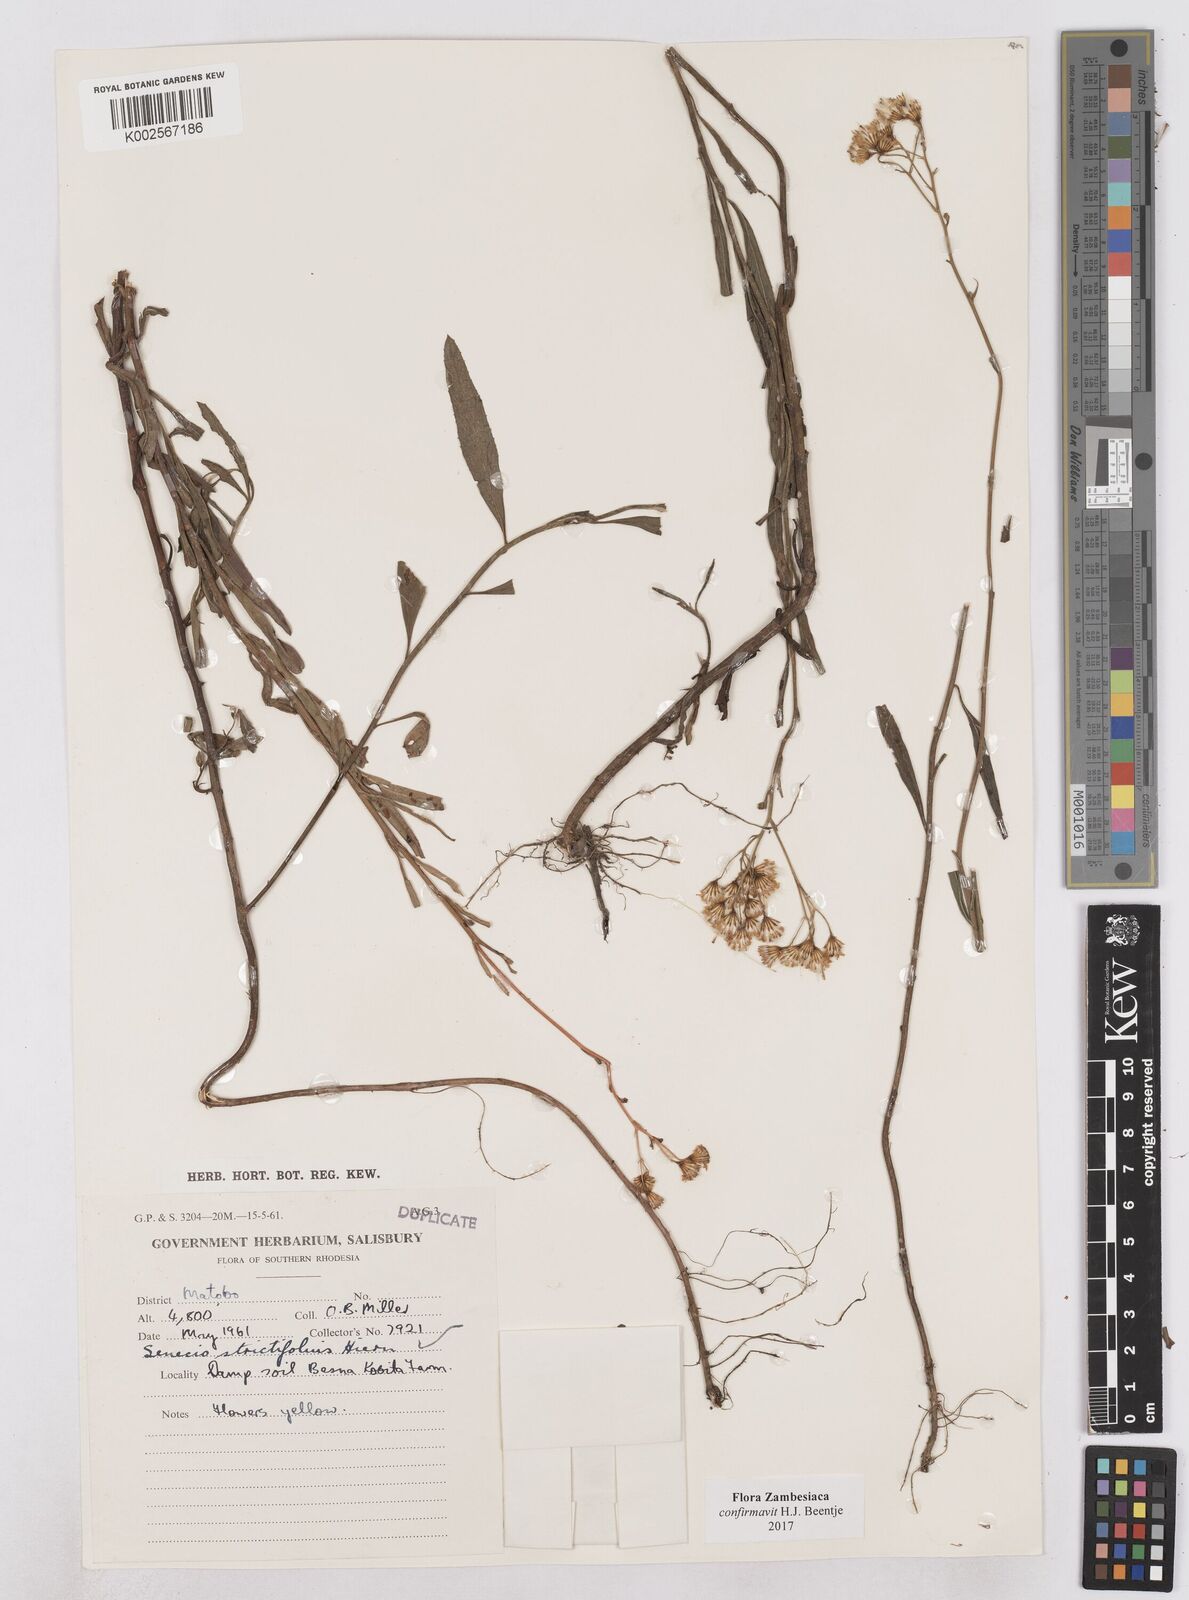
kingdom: Plantae
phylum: Tracheophyta
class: Magnoliopsida
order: Asterales
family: Asteraceae
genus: Senecio
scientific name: Senecio strictifolius
